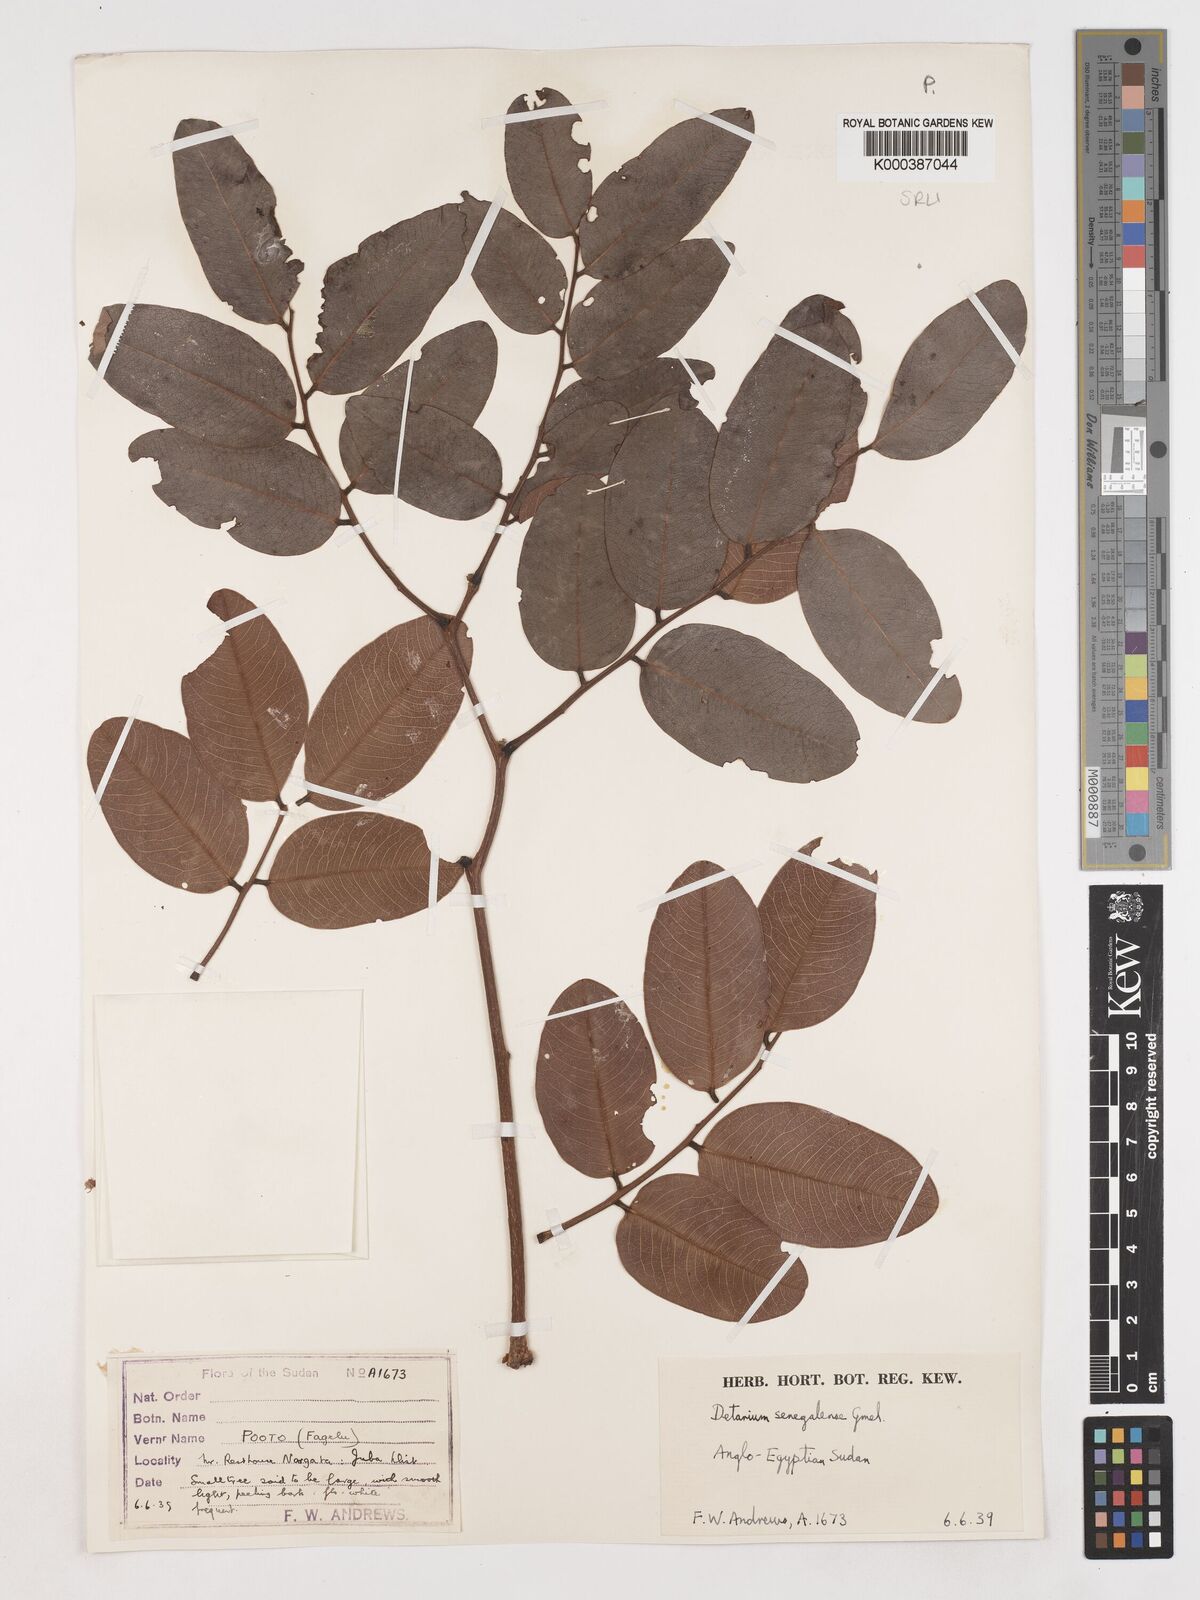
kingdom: Plantae
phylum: Tracheophyta
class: Magnoliopsida
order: Fabales
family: Fabaceae
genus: Detarium
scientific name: Detarium microcarpum
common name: Sweet dattock
